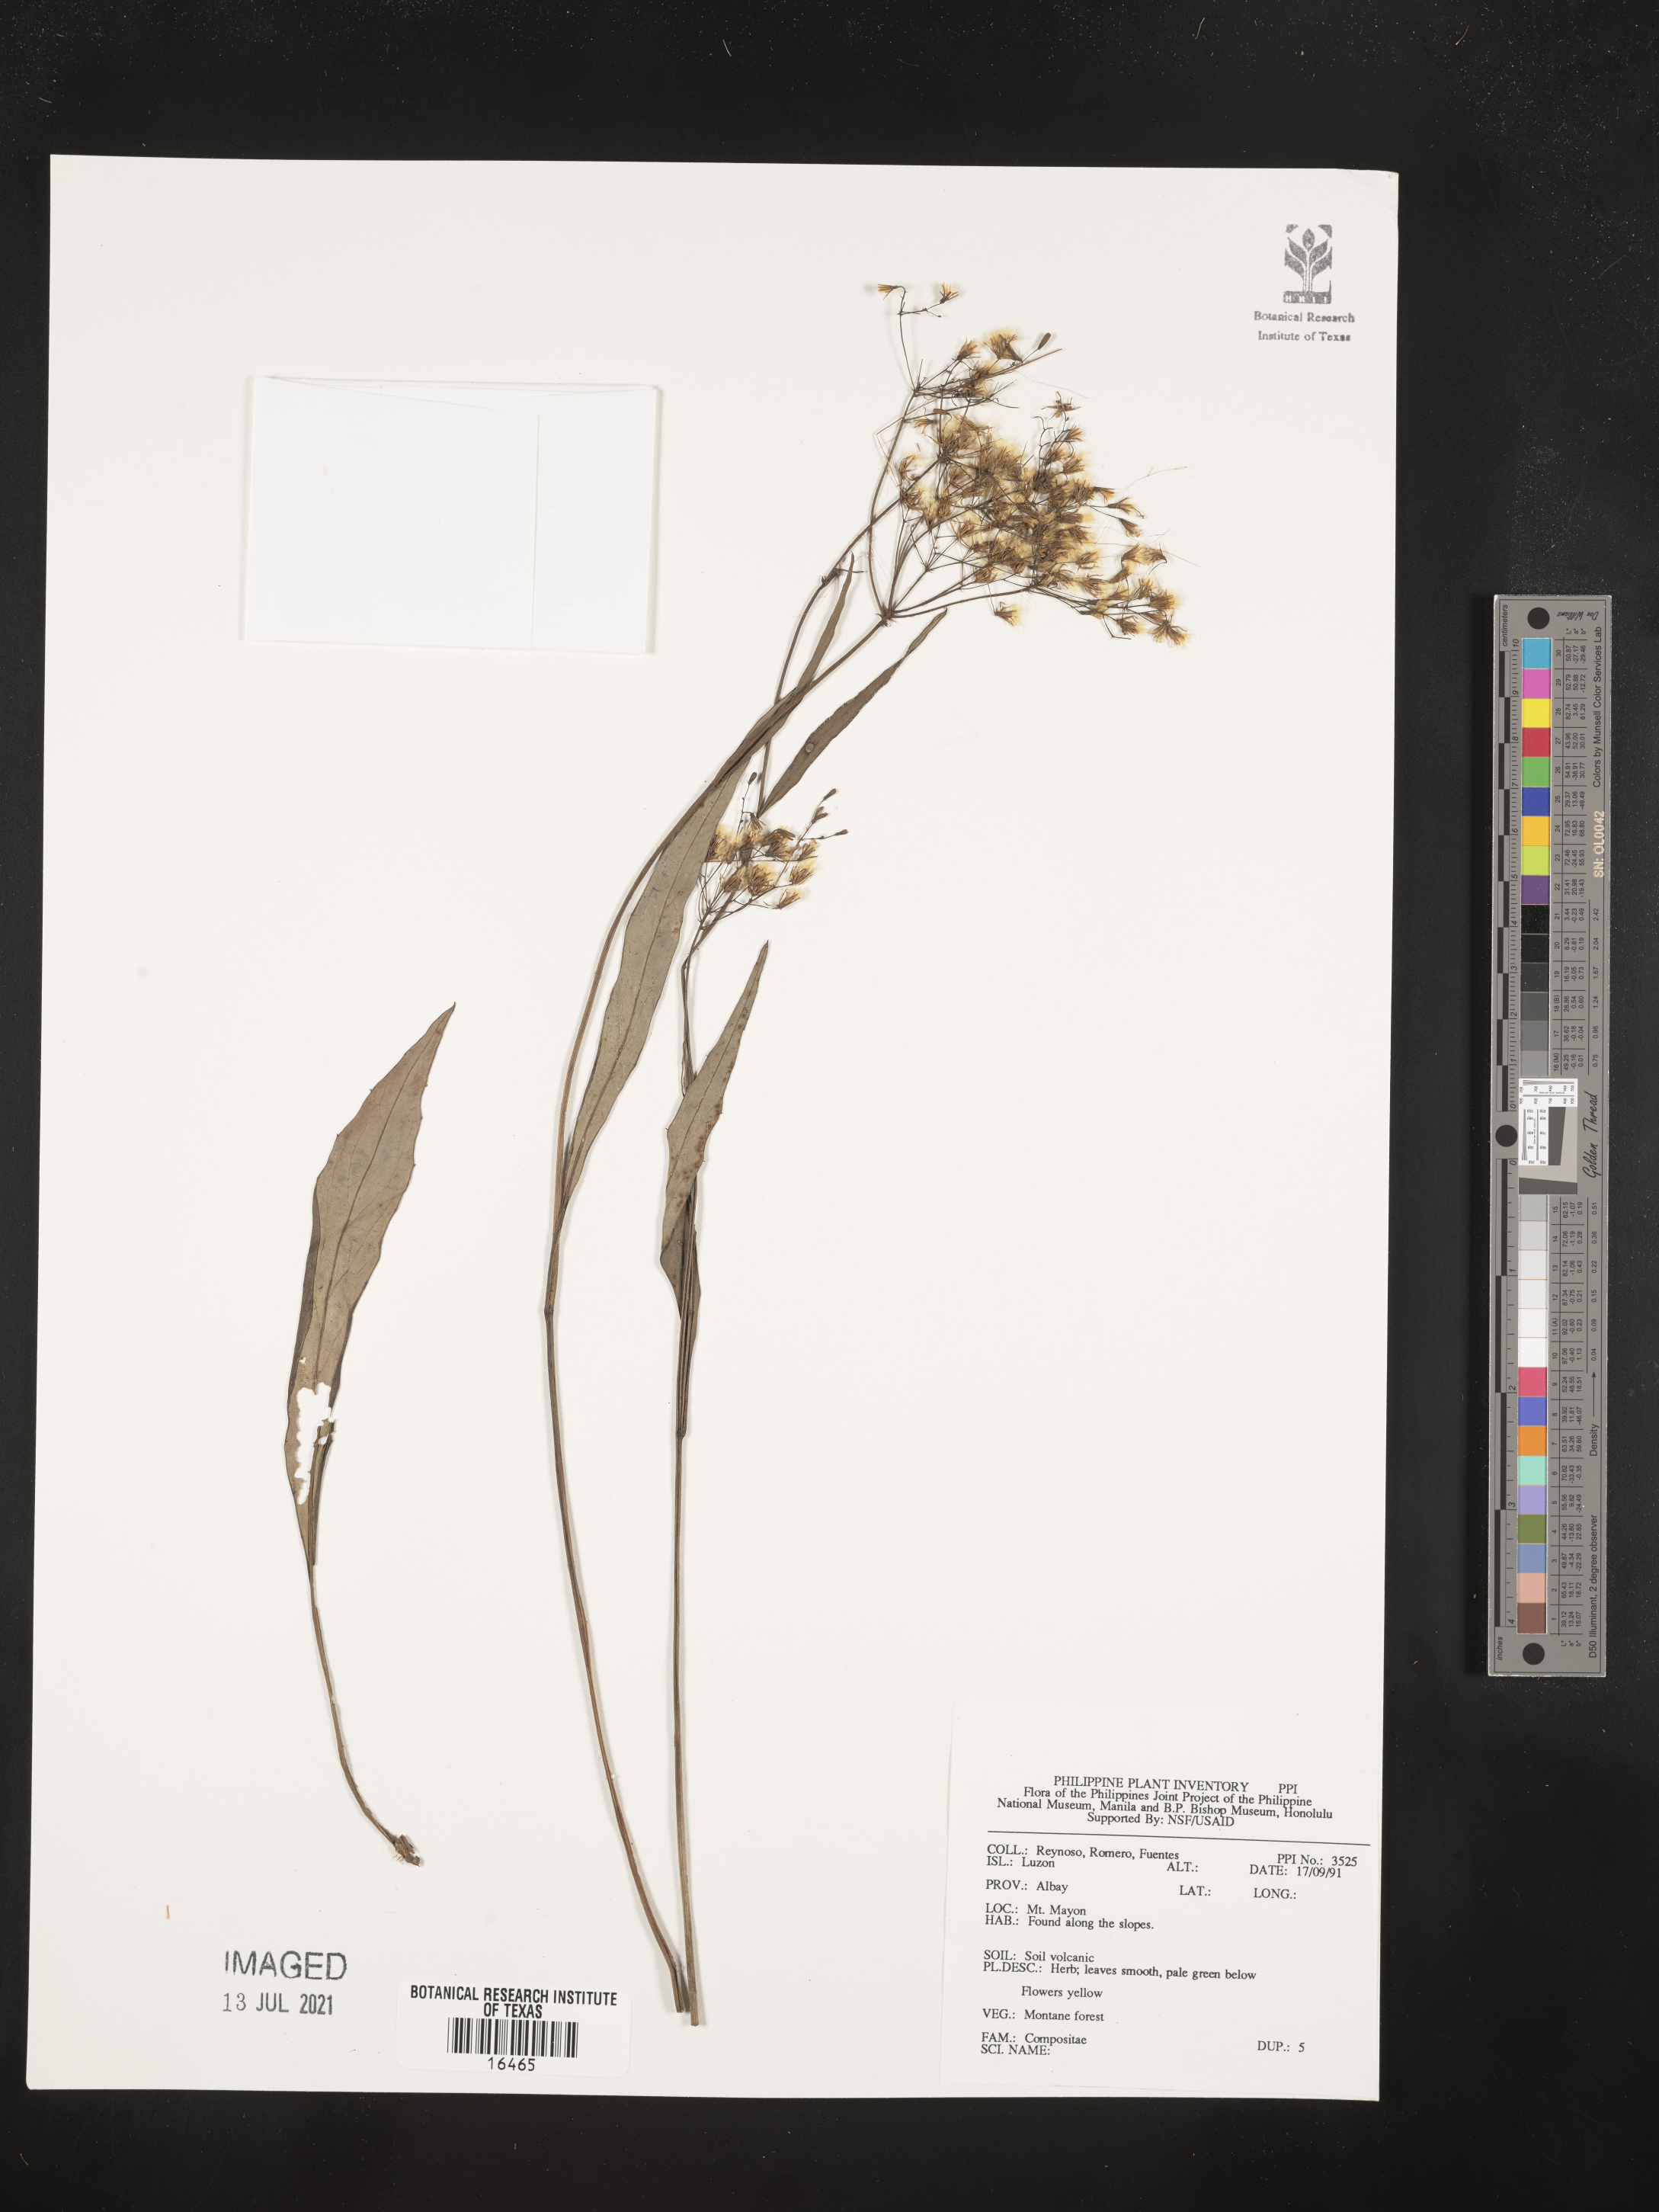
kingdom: Plantae
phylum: Tracheophyta
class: Magnoliopsida
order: Asterales
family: Asteraceae
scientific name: Asteraceae
